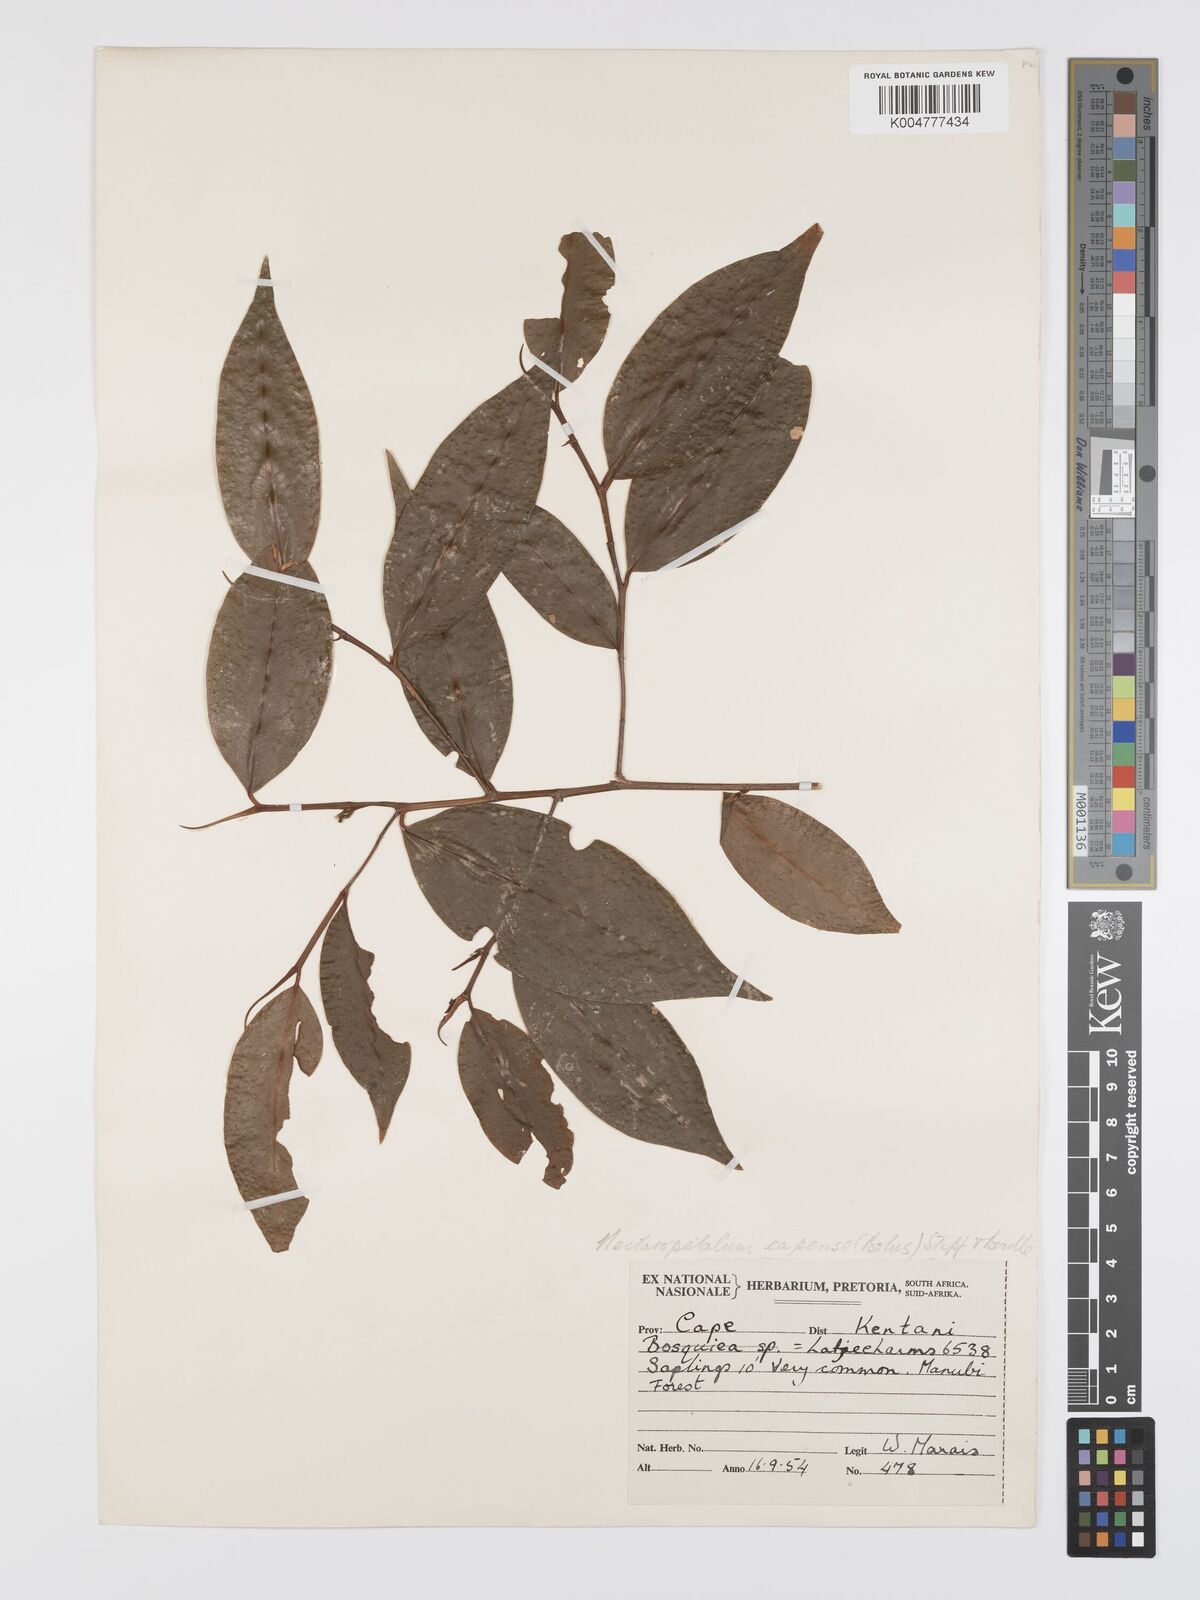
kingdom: Plantae
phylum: Tracheophyta
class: Magnoliopsida
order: Malpighiales
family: Erythroxylaceae
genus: Nectaropetalum
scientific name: Nectaropetalum capense
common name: Southern false coca-tree
